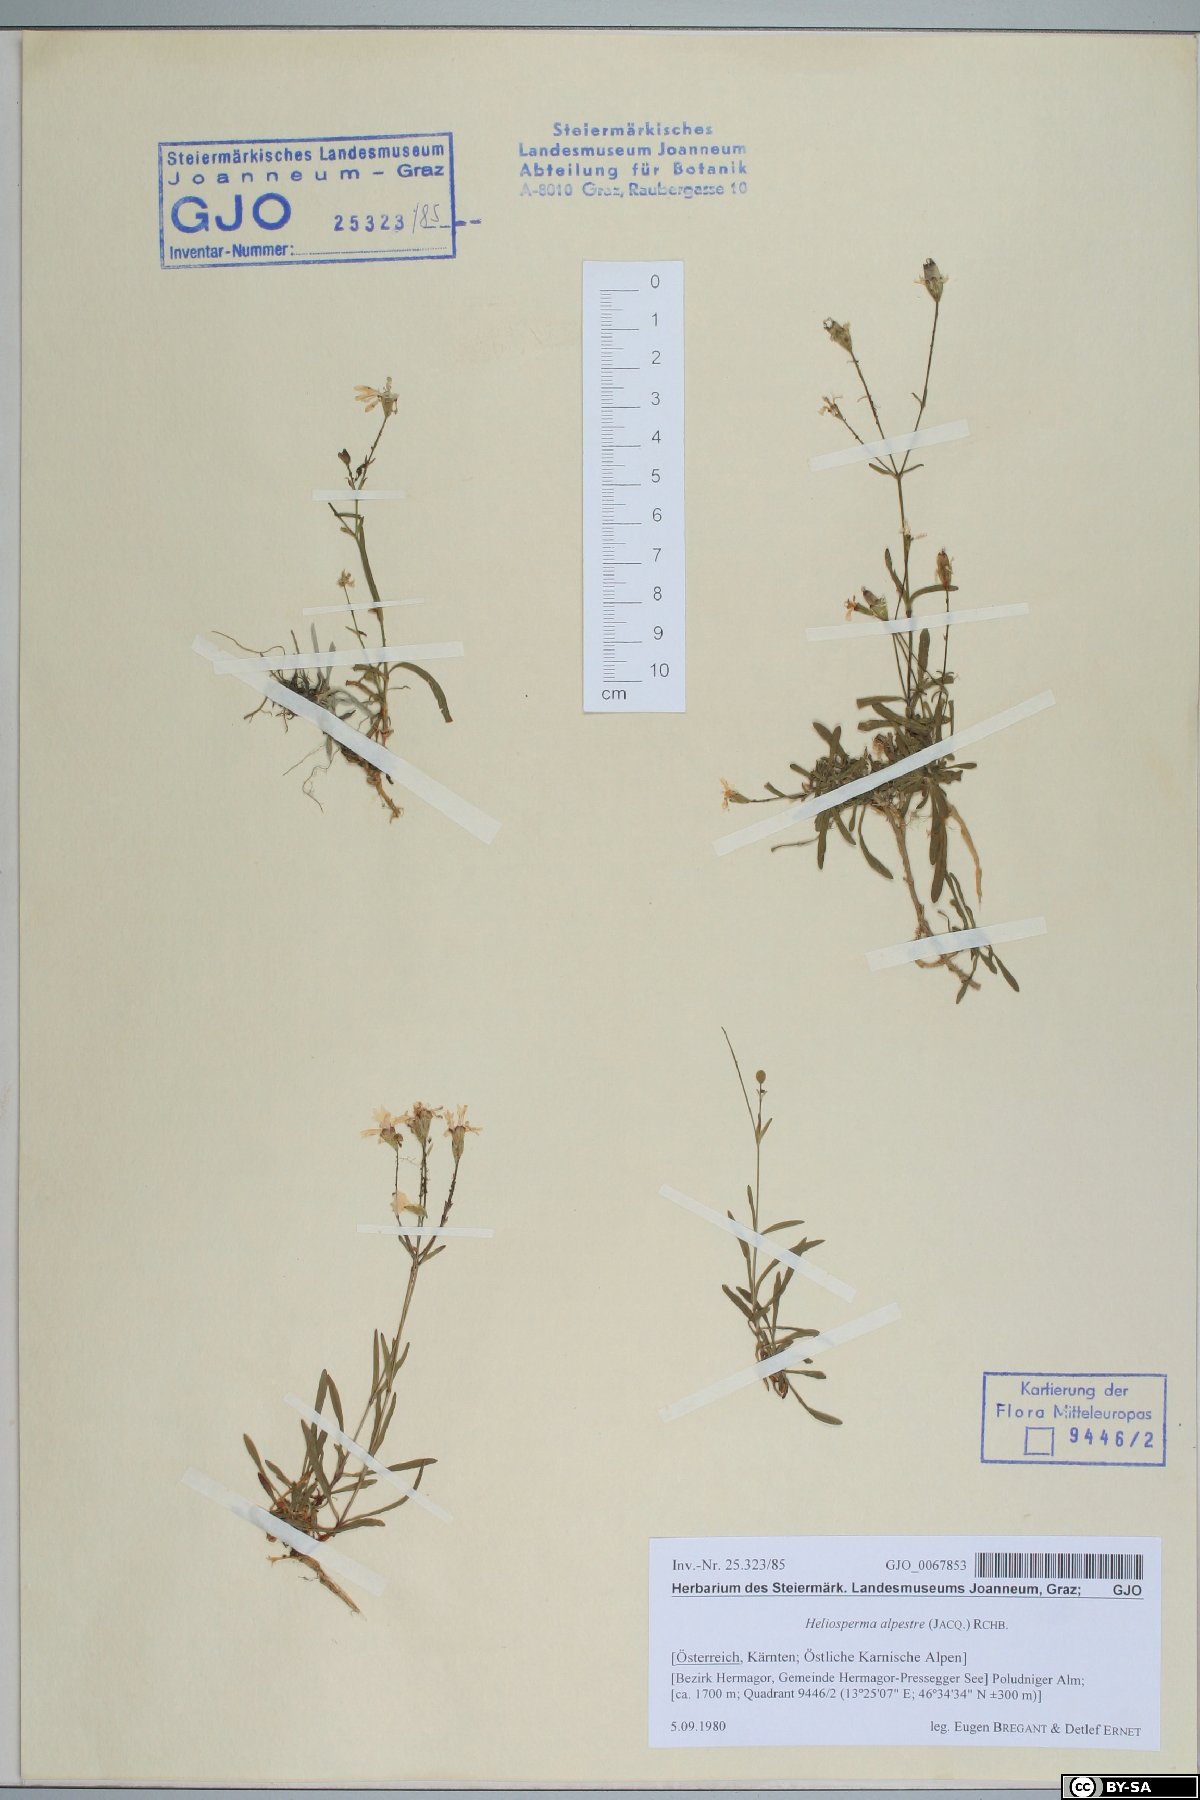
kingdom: Plantae
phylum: Tracheophyta
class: Magnoliopsida
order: Caryophyllales
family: Caryophyllaceae
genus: Heliosperma
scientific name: Heliosperma alpestre
